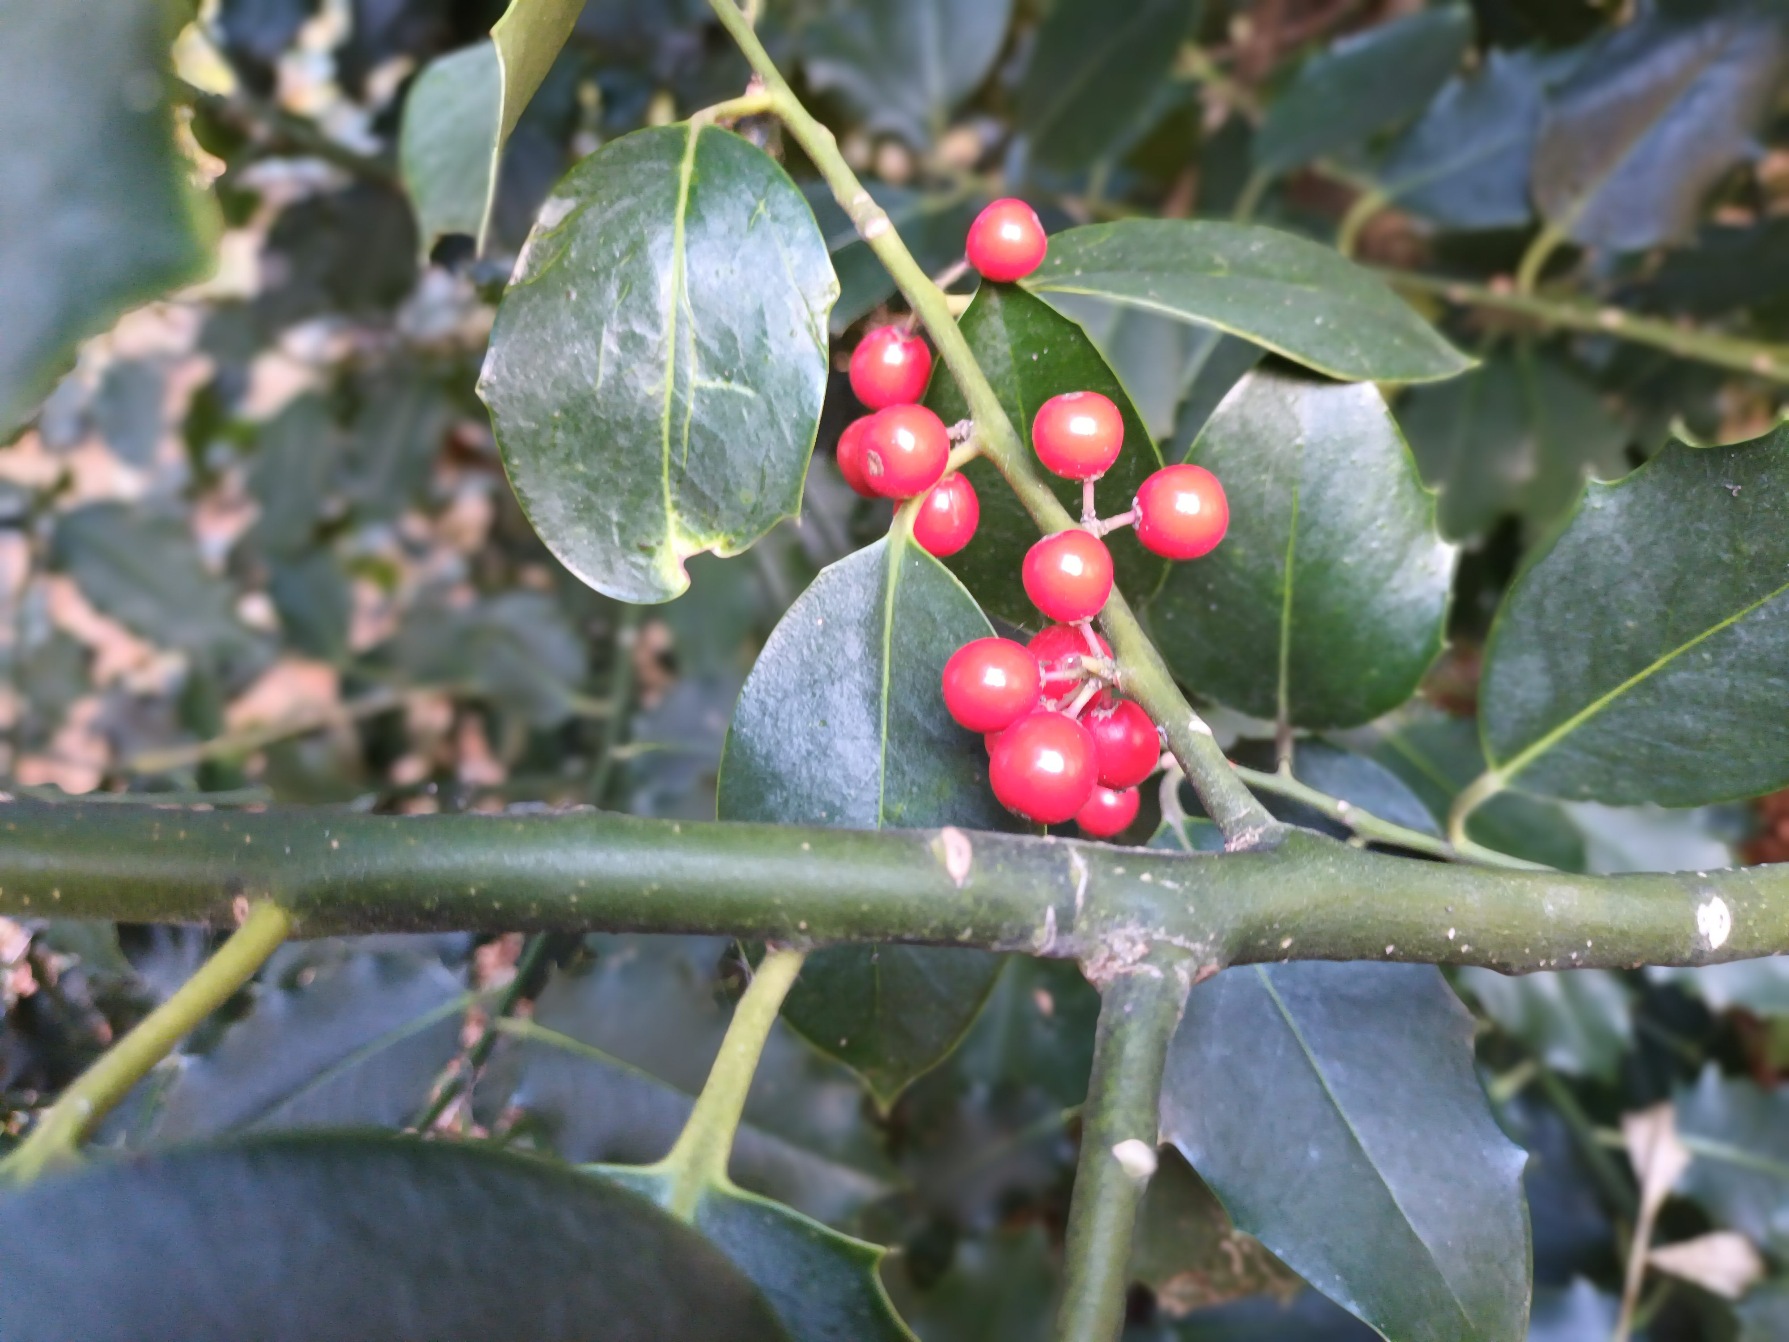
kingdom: Plantae
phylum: Tracheophyta
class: Magnoliopsida
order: Aquifoliales
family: Aquifoliaceae
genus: Ilex
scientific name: Ilex aquifolium
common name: Kristtorn
